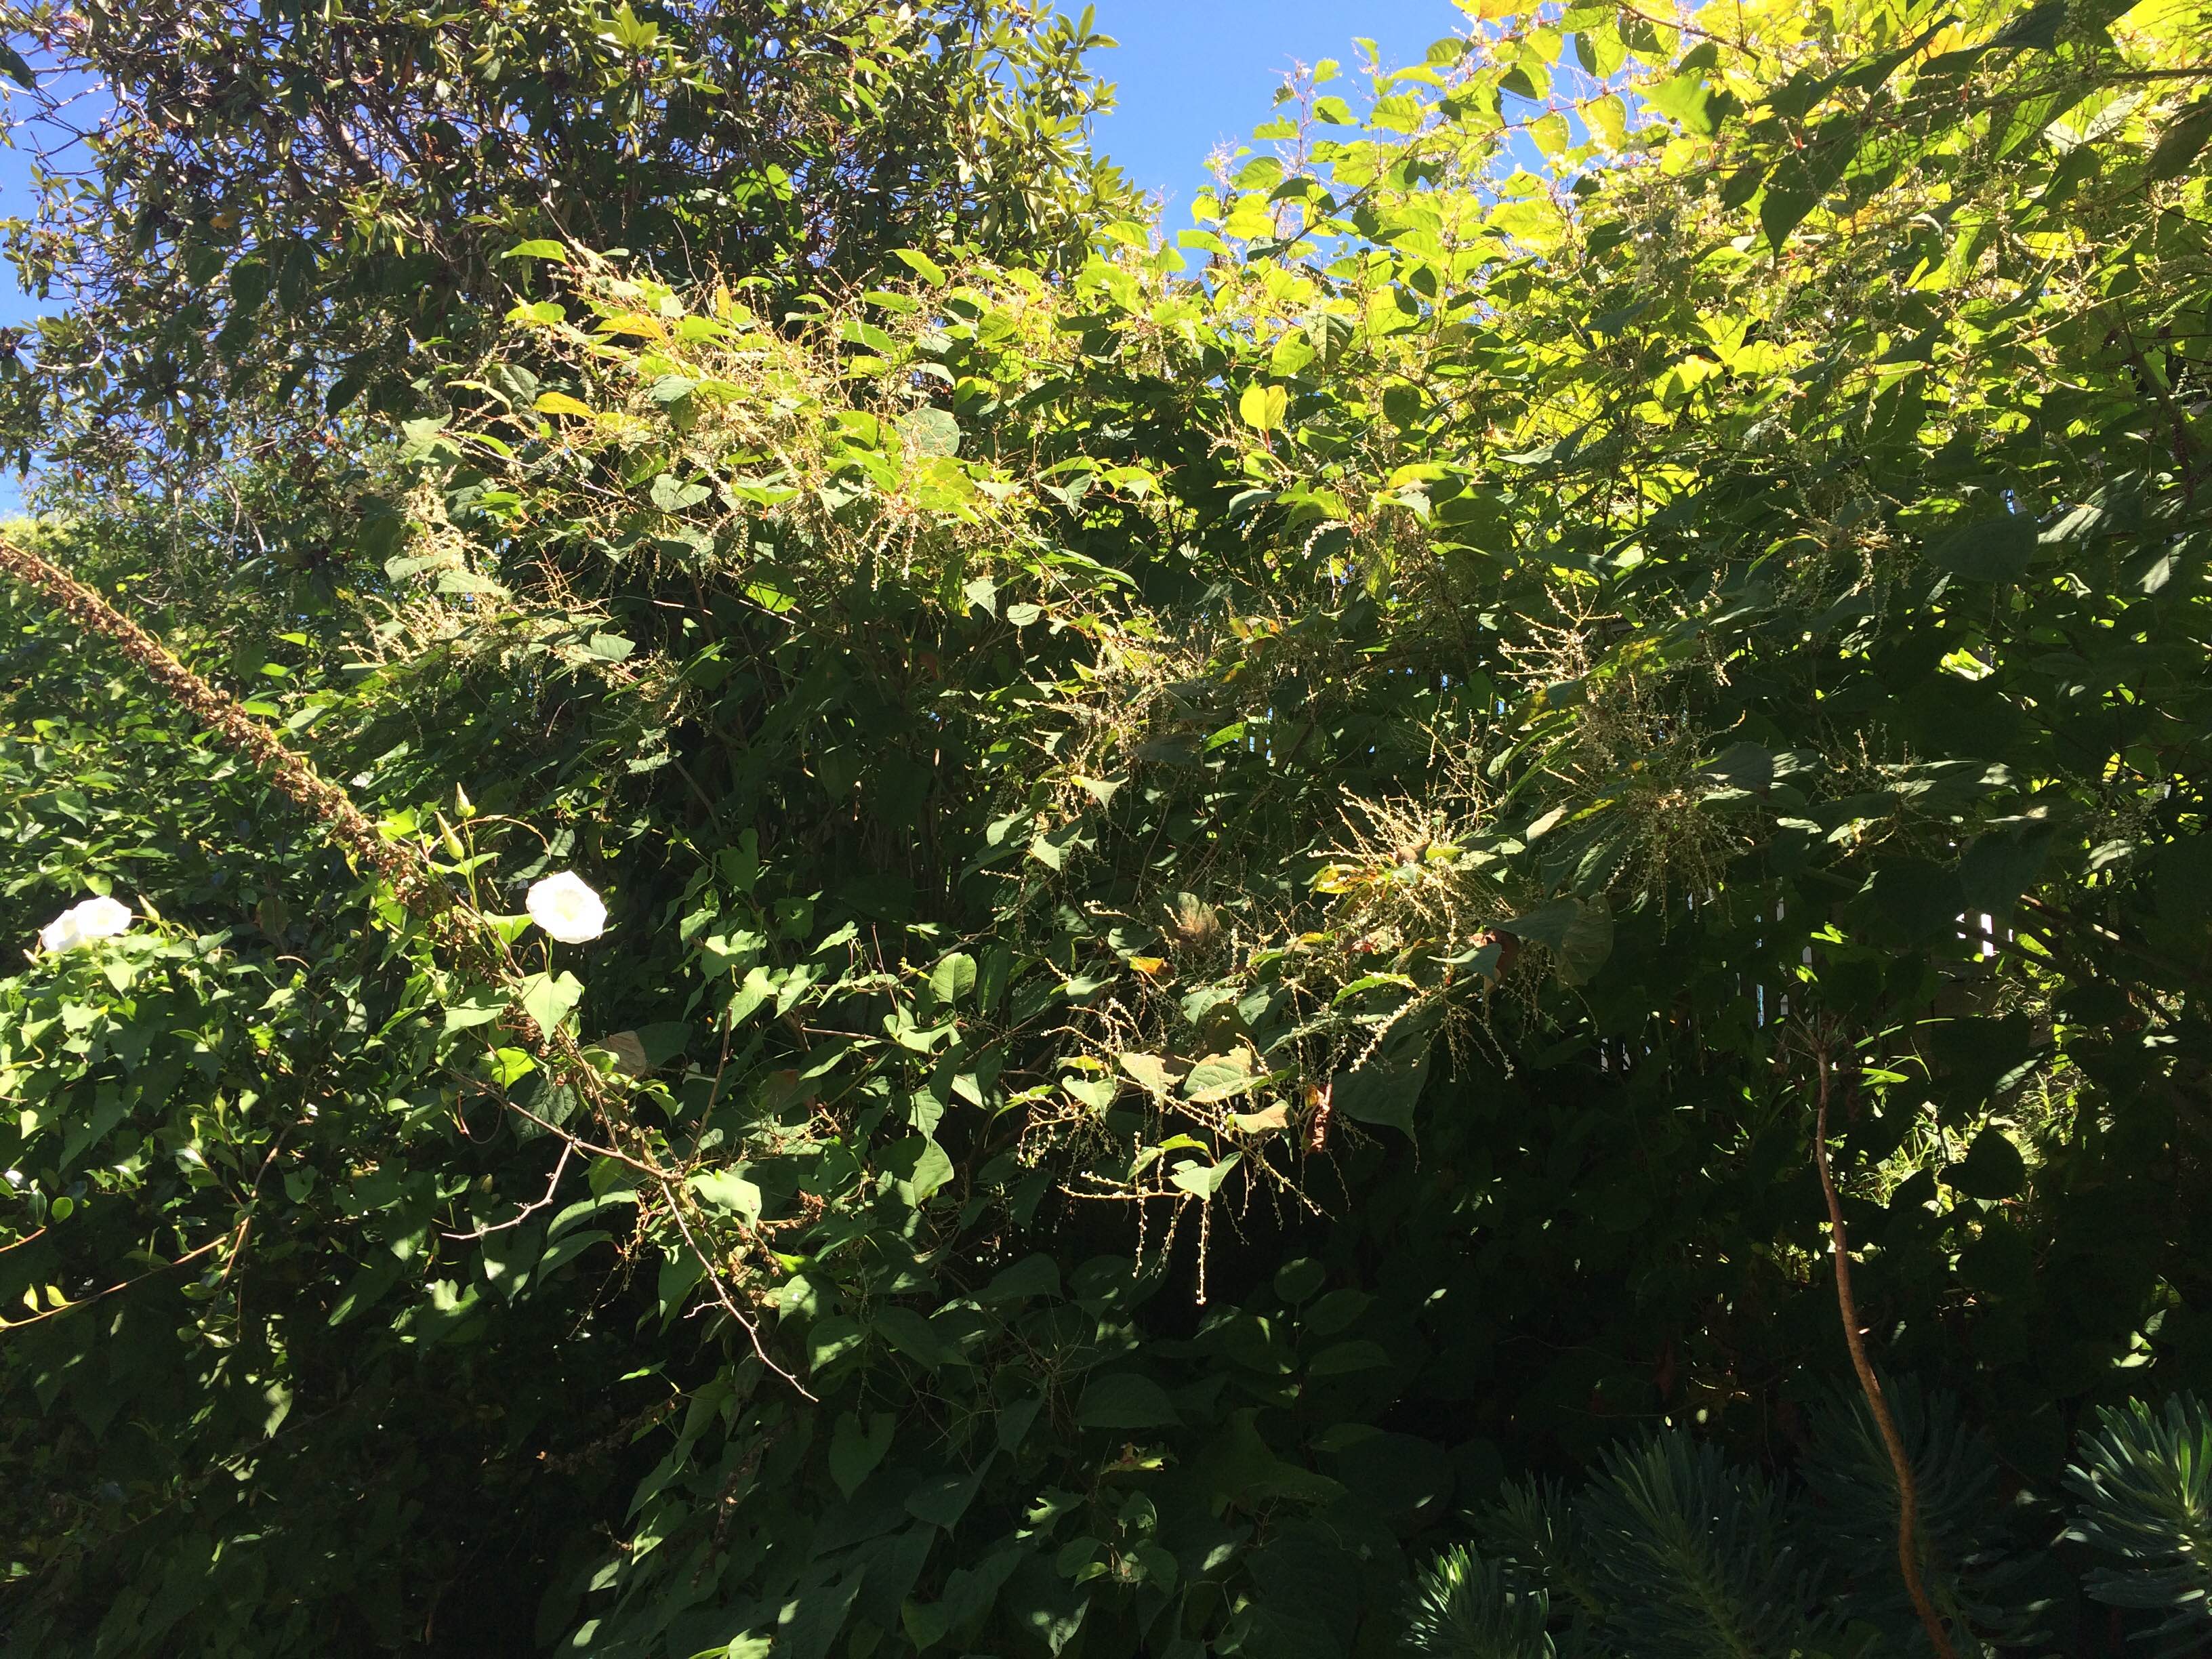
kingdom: Plantae
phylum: Tracheophyta
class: Magnoliopsida
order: Caryophyllales
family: Polygonaceae
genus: Reynoutria
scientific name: Reynoutria japonica
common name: Japanese knotweed
